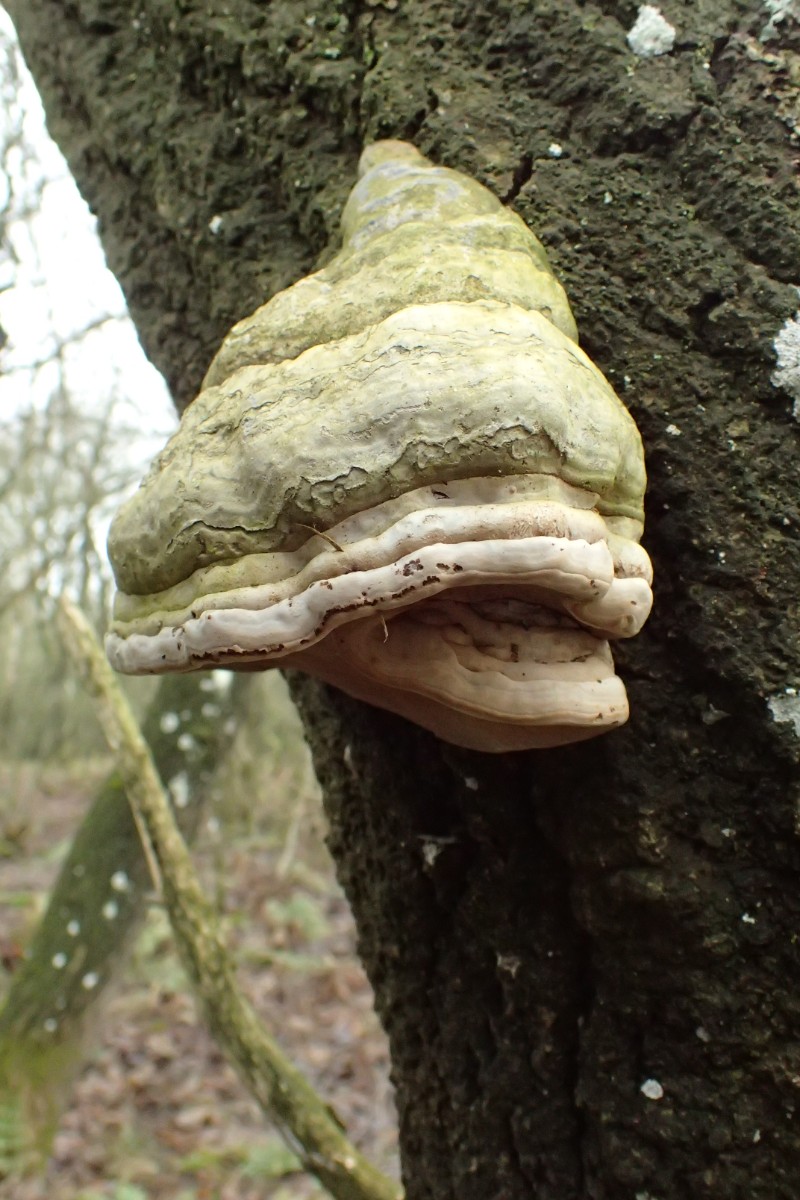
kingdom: Fungi
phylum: Basidiomycota
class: Agaricomycetes
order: Polyporales
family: Polyporaceae
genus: Fomes
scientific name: Fomes fomentarius
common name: tøndersvamp
